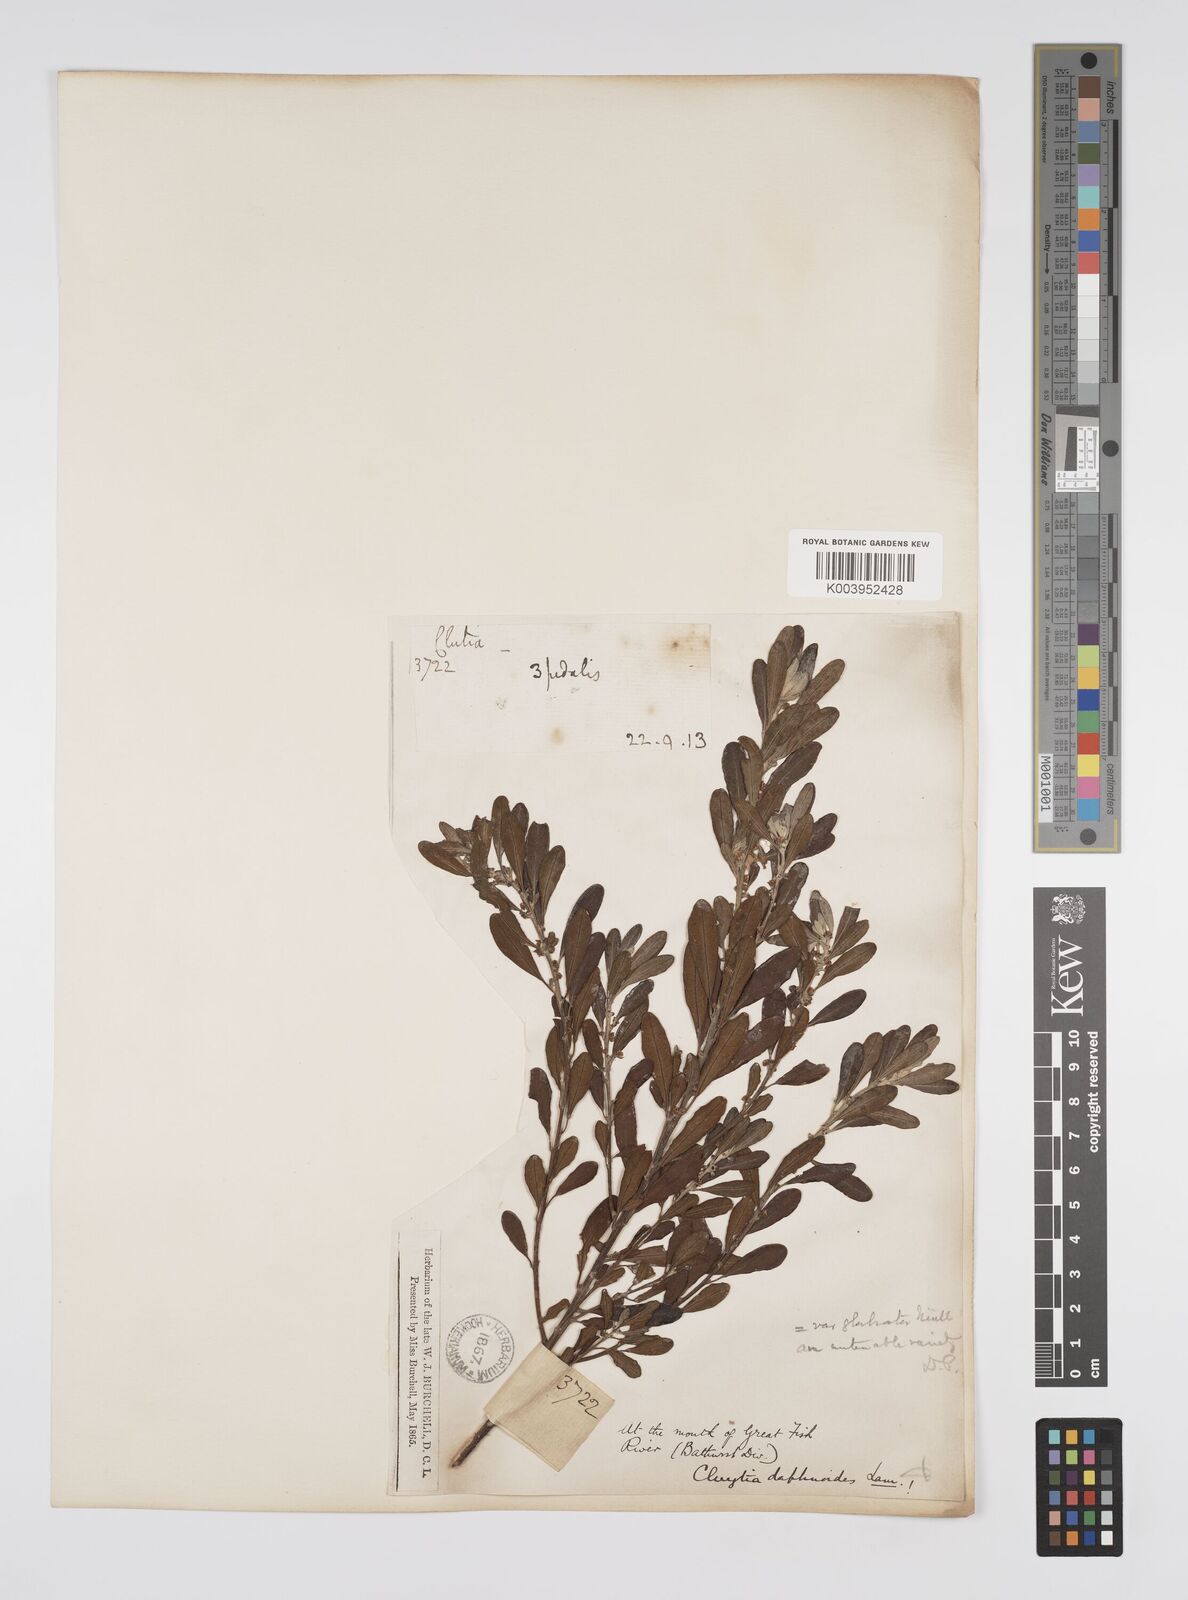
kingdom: Plantae
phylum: Tracheophyta
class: Magnoliopsida
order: Malpighiales
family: Peraceae
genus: Clutia
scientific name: Clutia daphnoides
